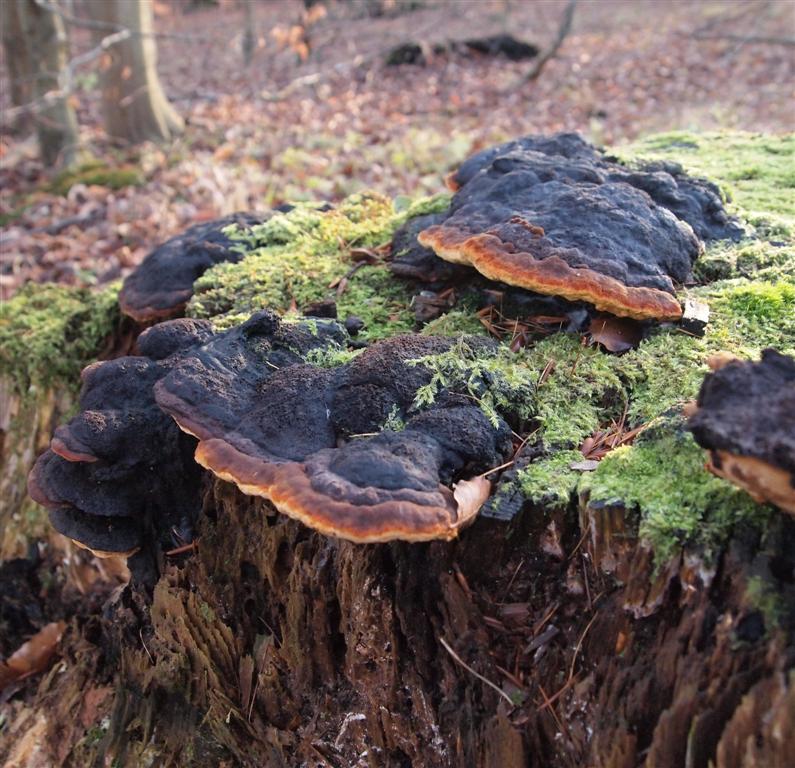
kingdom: Fungi
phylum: Basidiomycota
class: Agaricomycetes
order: Gloeophyllales
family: Gloeophyllaceae
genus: Gloeophyllum
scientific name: Gloeophyllum odoratum
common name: duftende korkhat
